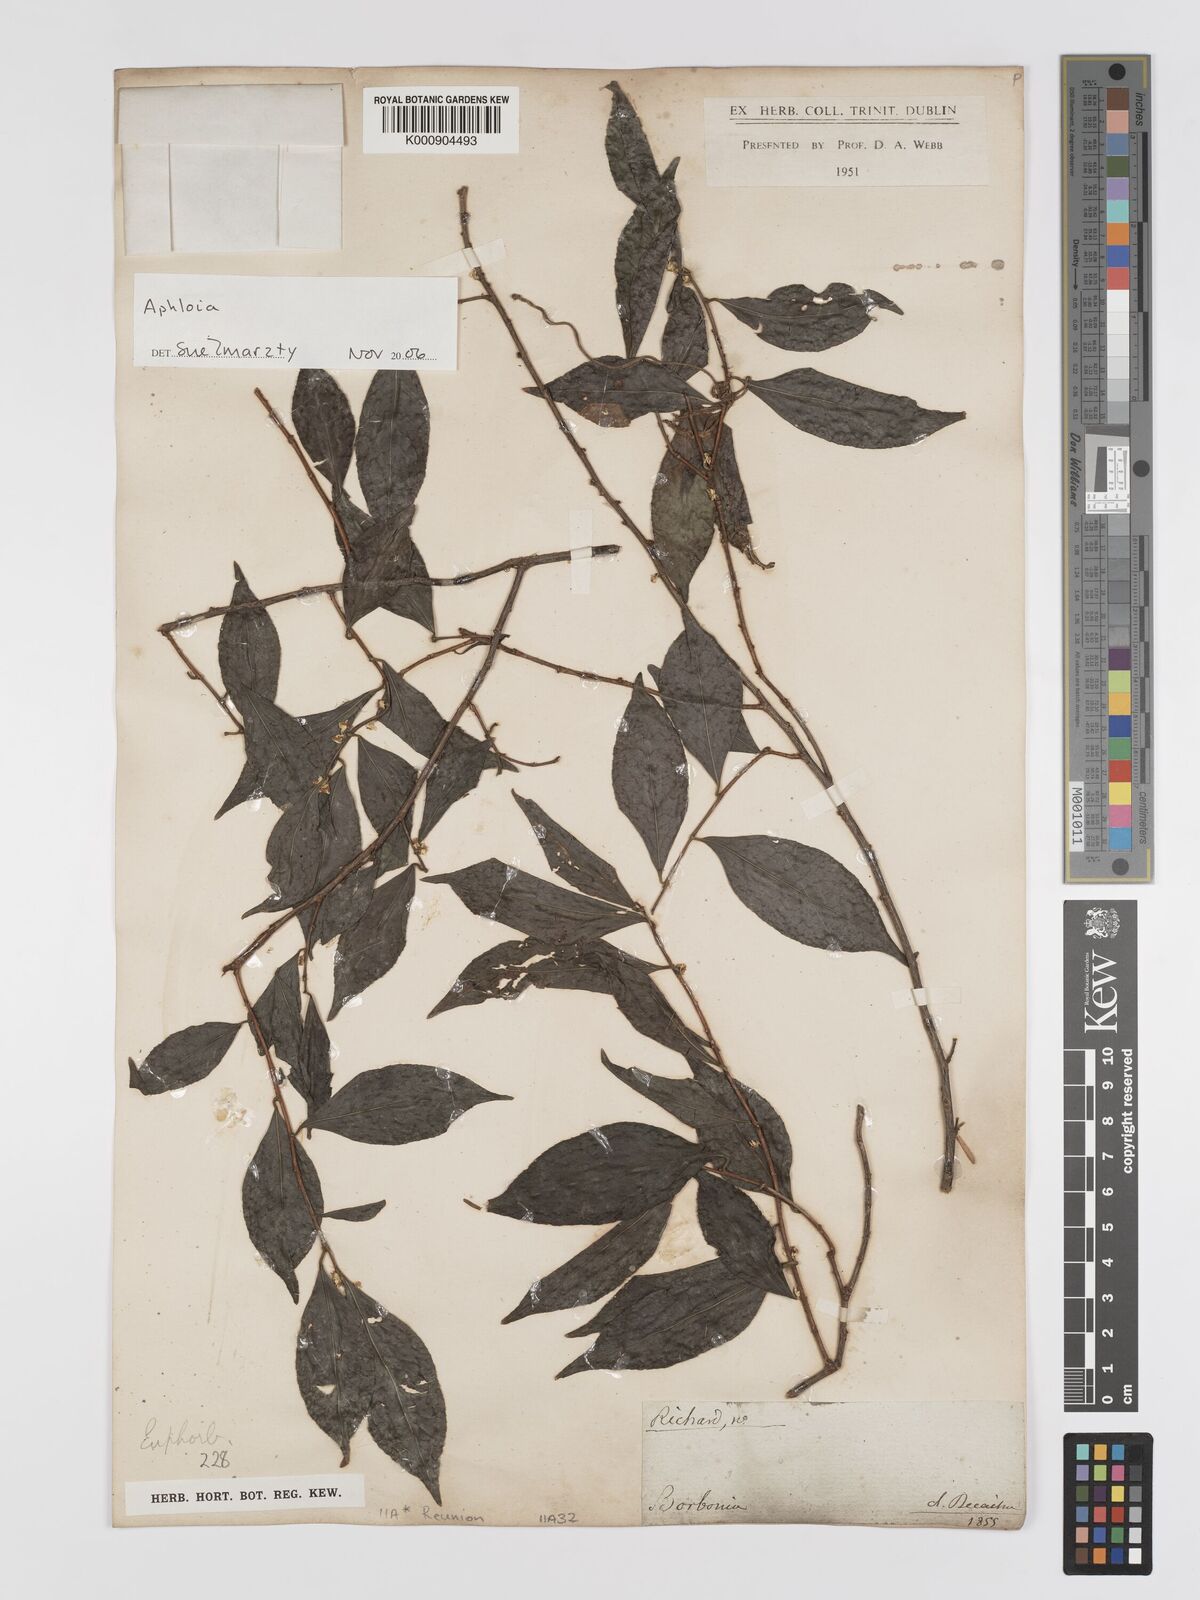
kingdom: Plantae
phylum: Tracheophyta
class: Magnoliopsida
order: Crossosomatales
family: Aphloiaceae
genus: Aphloia
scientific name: Aphloia
